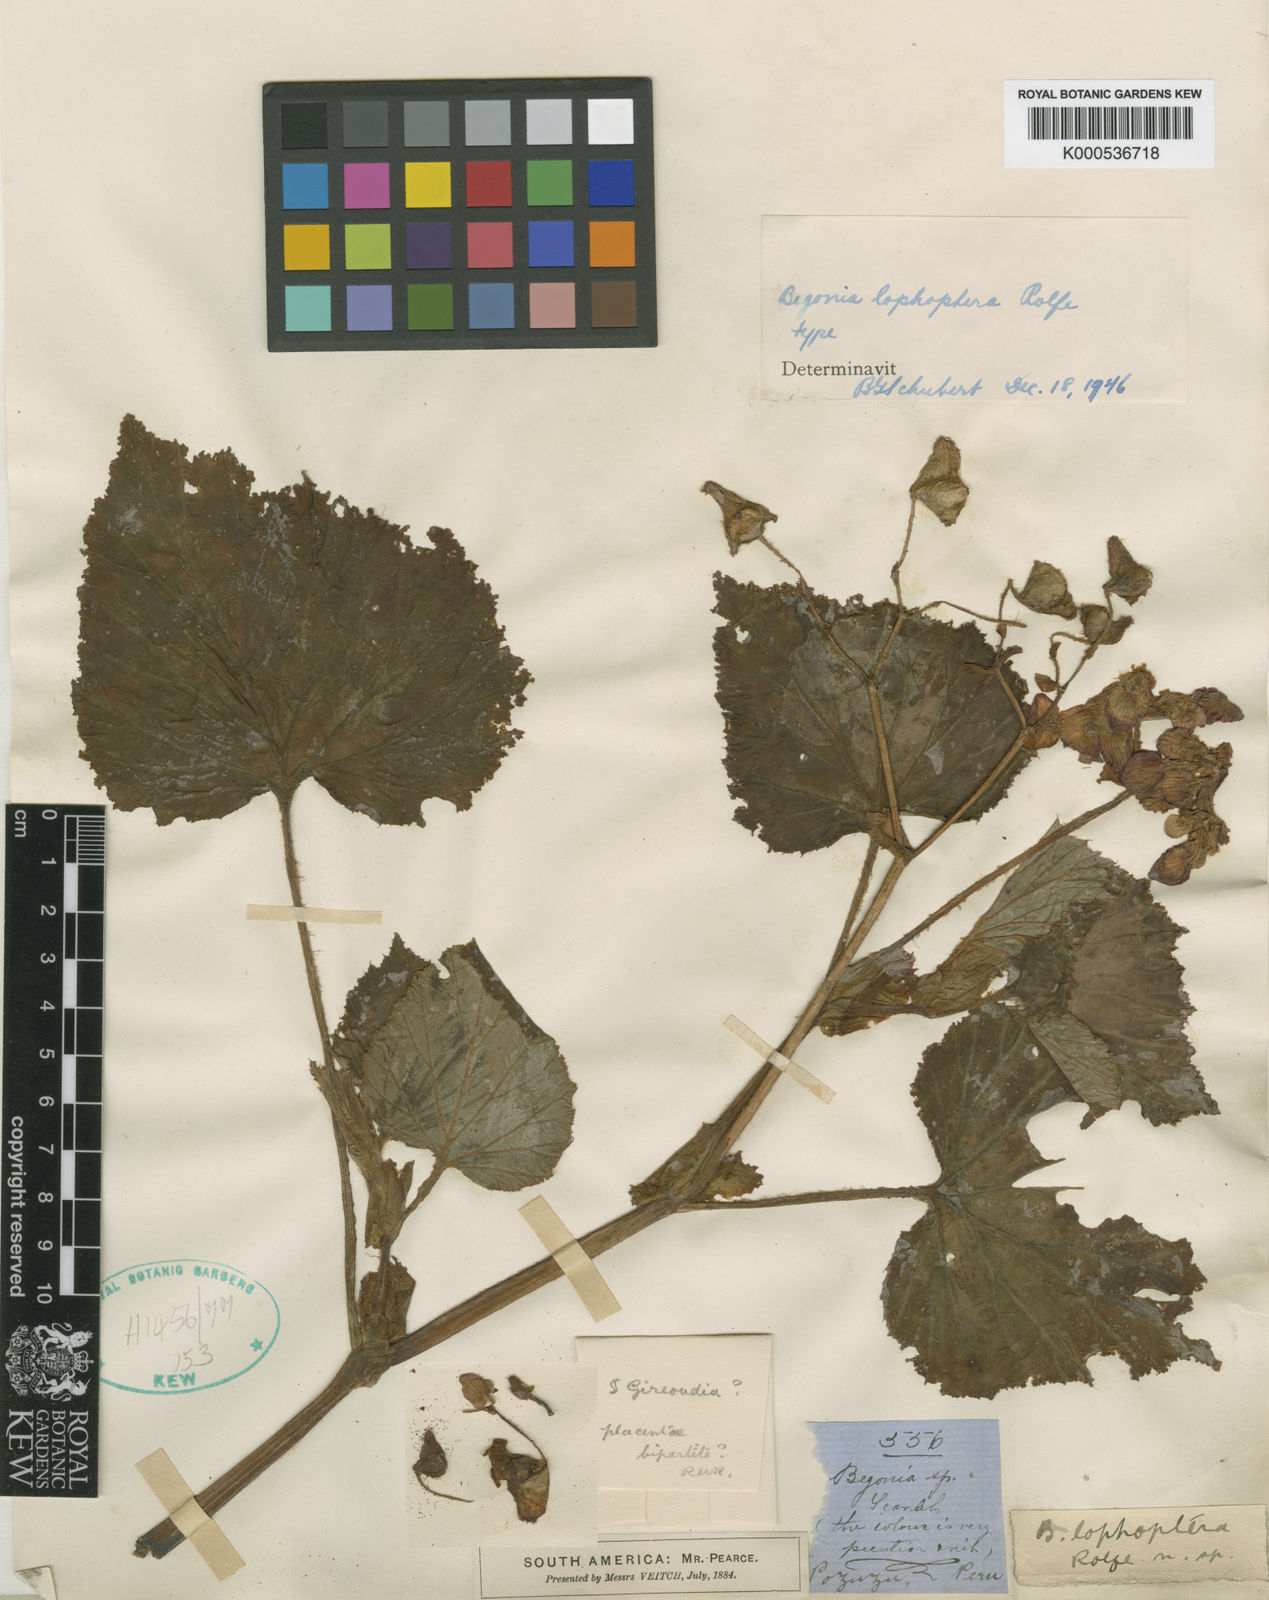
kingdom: Plantae
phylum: Tracheophyta
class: Magnoliopsida
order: Cucurbitales
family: Begoniaceae
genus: Begonia
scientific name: Begonia lophoptera
